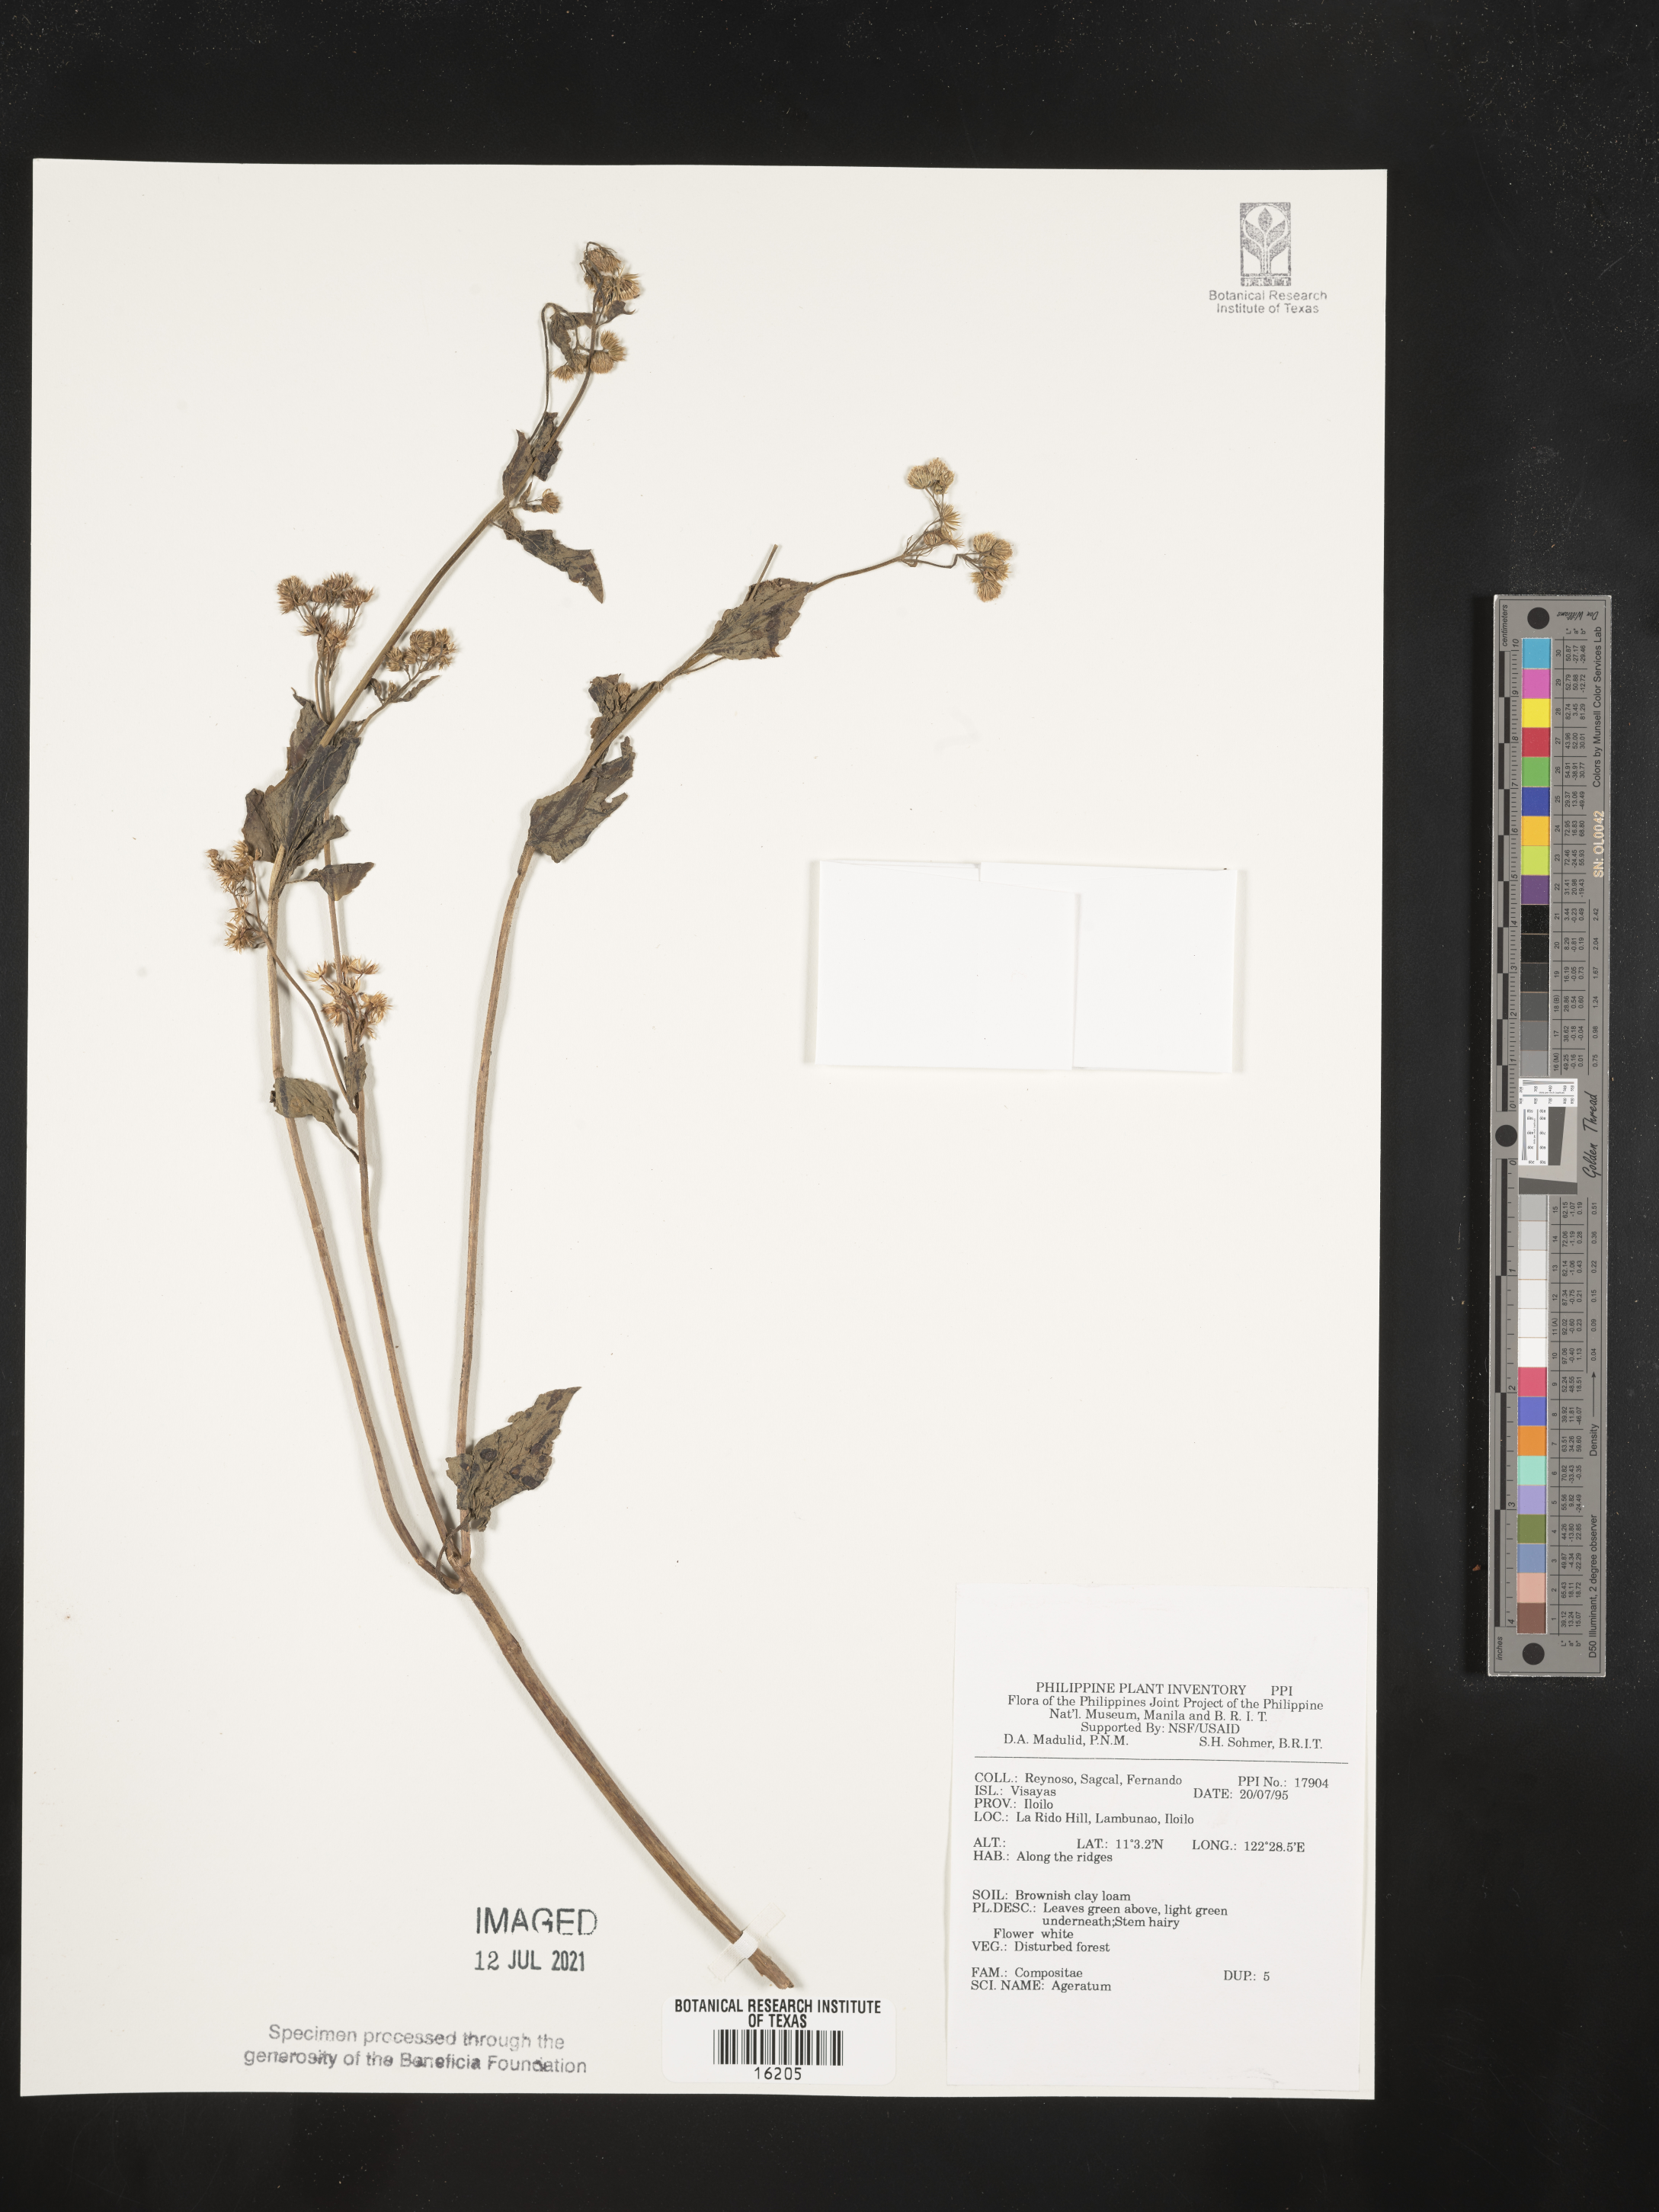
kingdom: Plantae
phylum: Tracheophyta
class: Magnoliopsida
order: Asterales
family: Asteraceae
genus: Ageratum
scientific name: Ageratum
